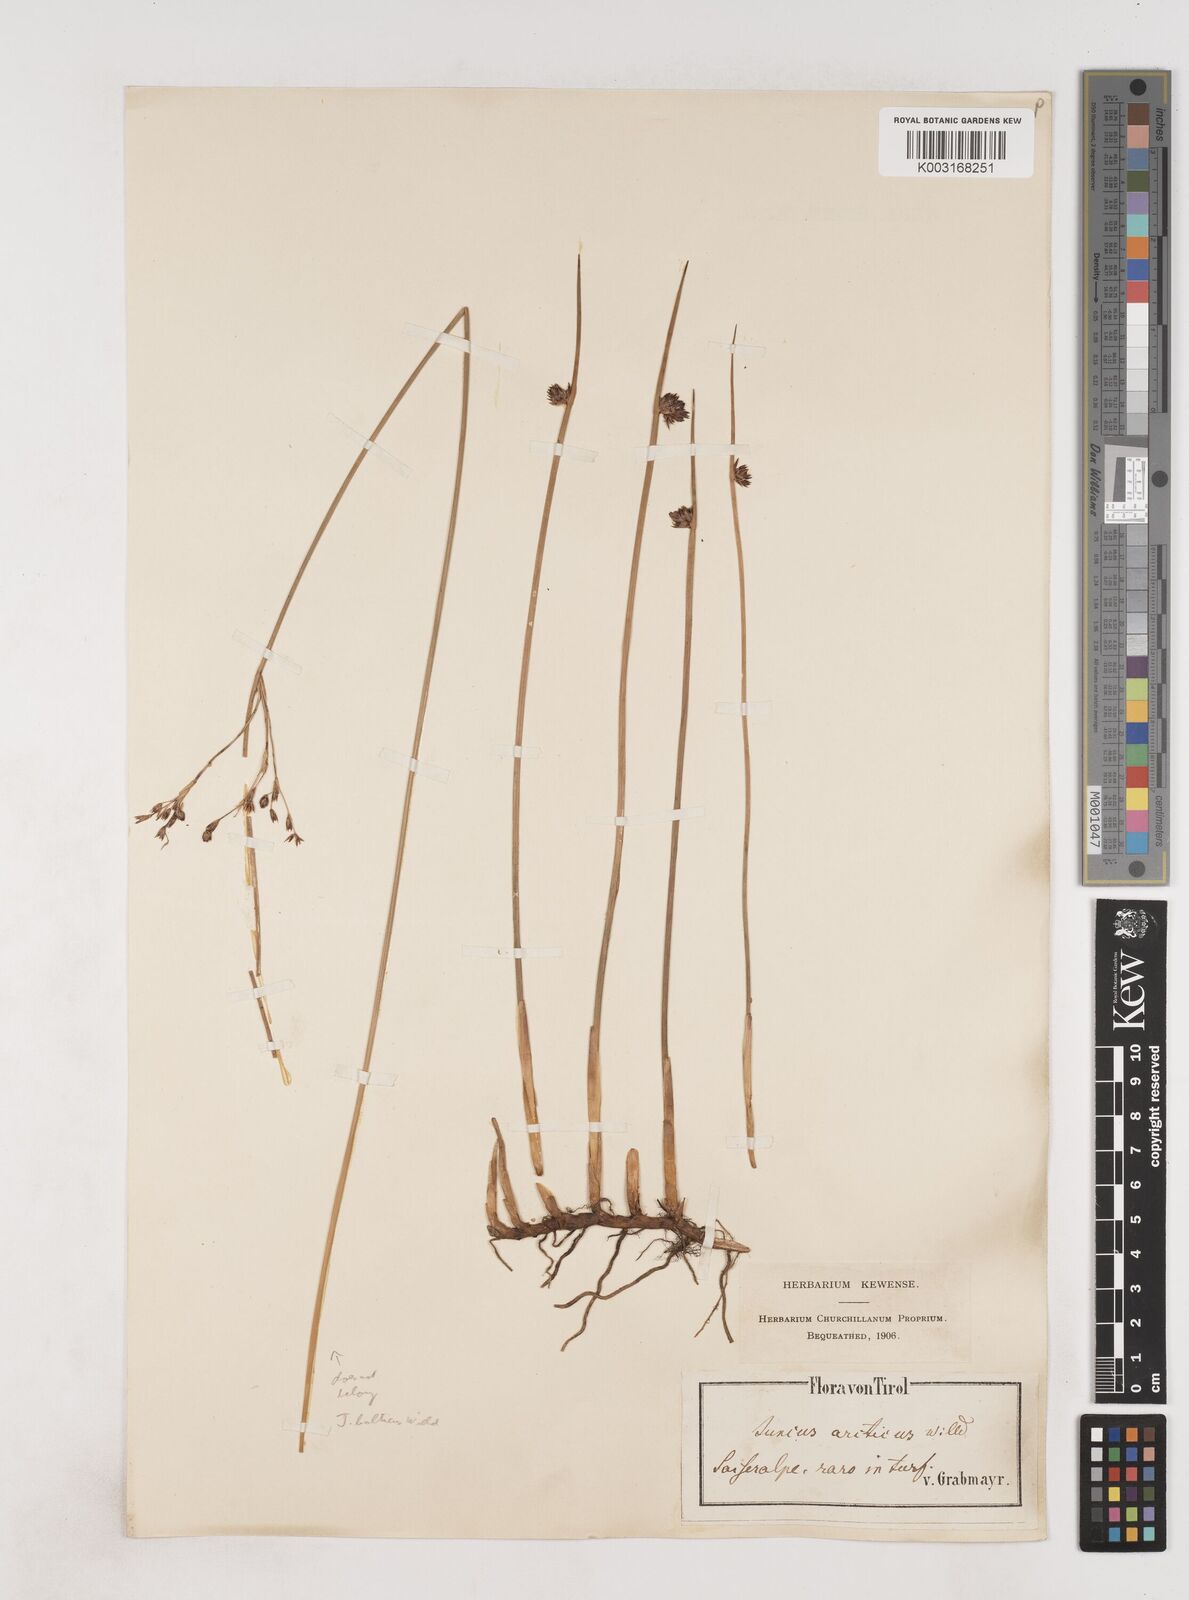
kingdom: Plantae
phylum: Tracheophyta
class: Liliopsida
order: Poales
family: Juncaceae
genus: Juncus
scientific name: Juncus arcticus
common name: Arctic rush
